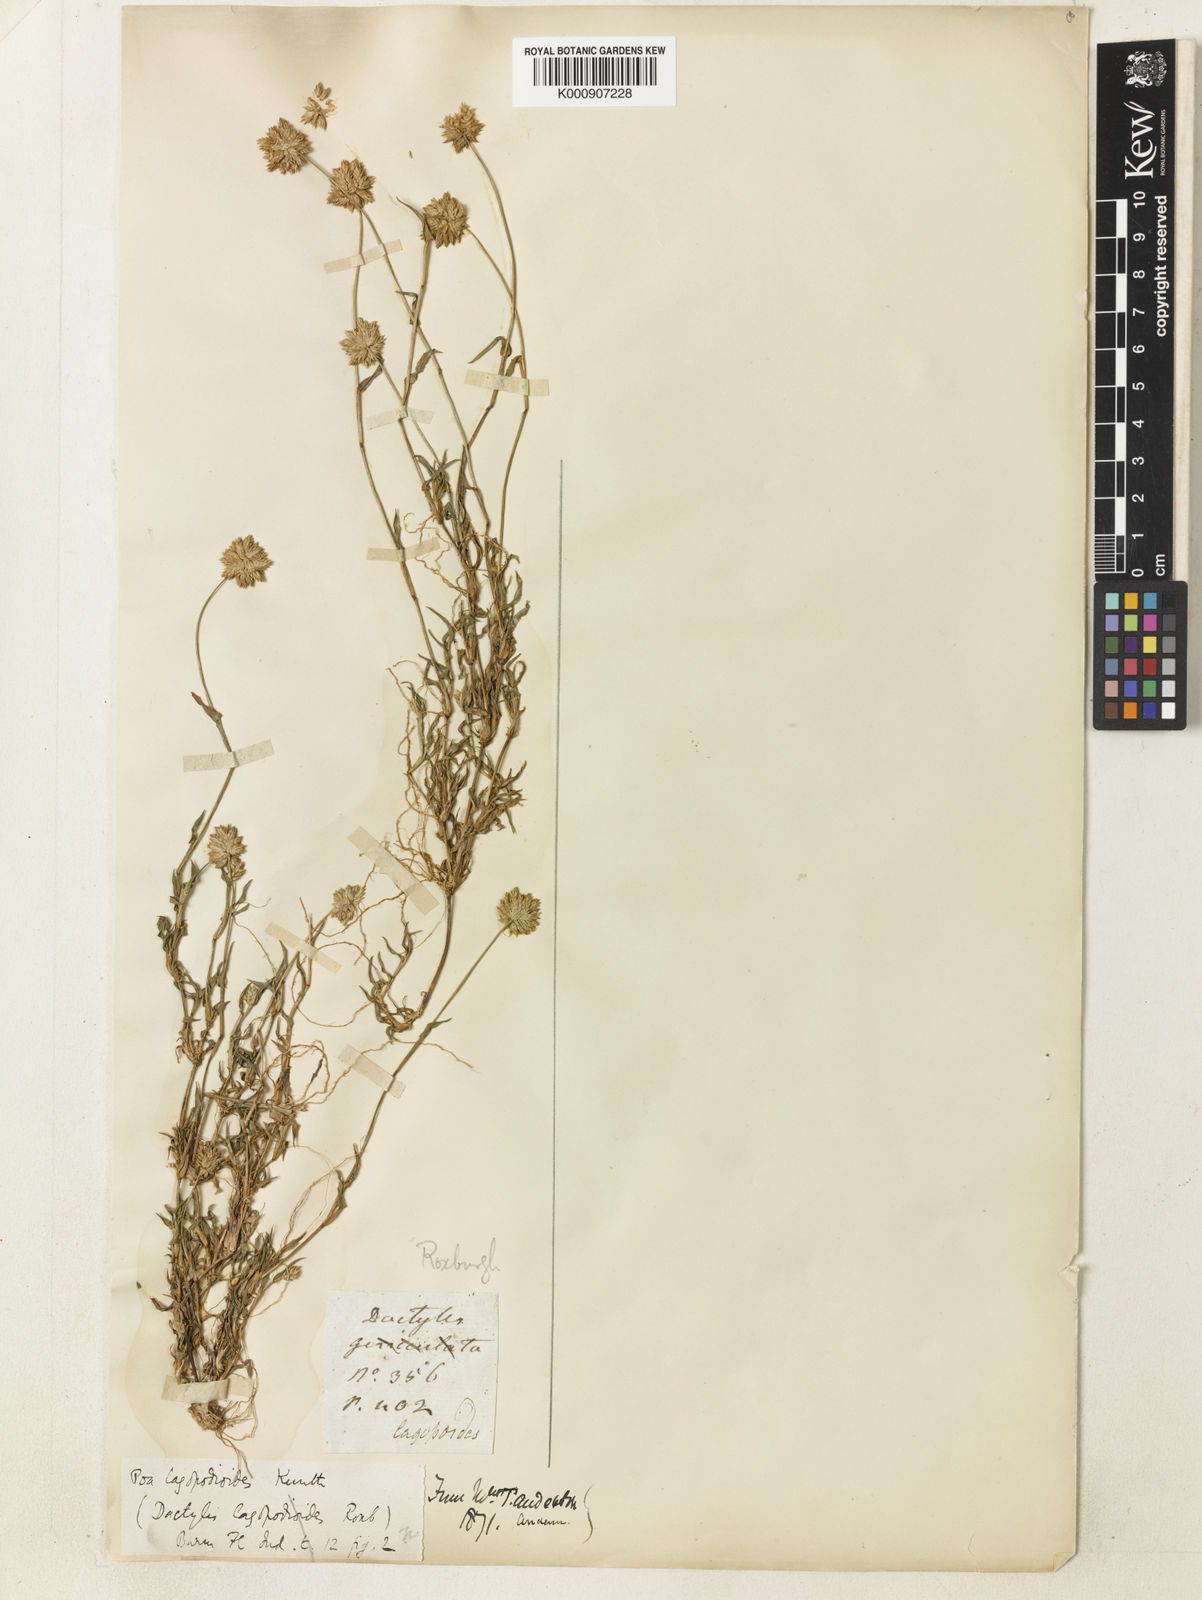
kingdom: Plantae
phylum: Tracheophyta
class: Liliopsida
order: Poales
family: Poaceae
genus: Coelachyrum
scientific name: Coelachyrum lagopoides
